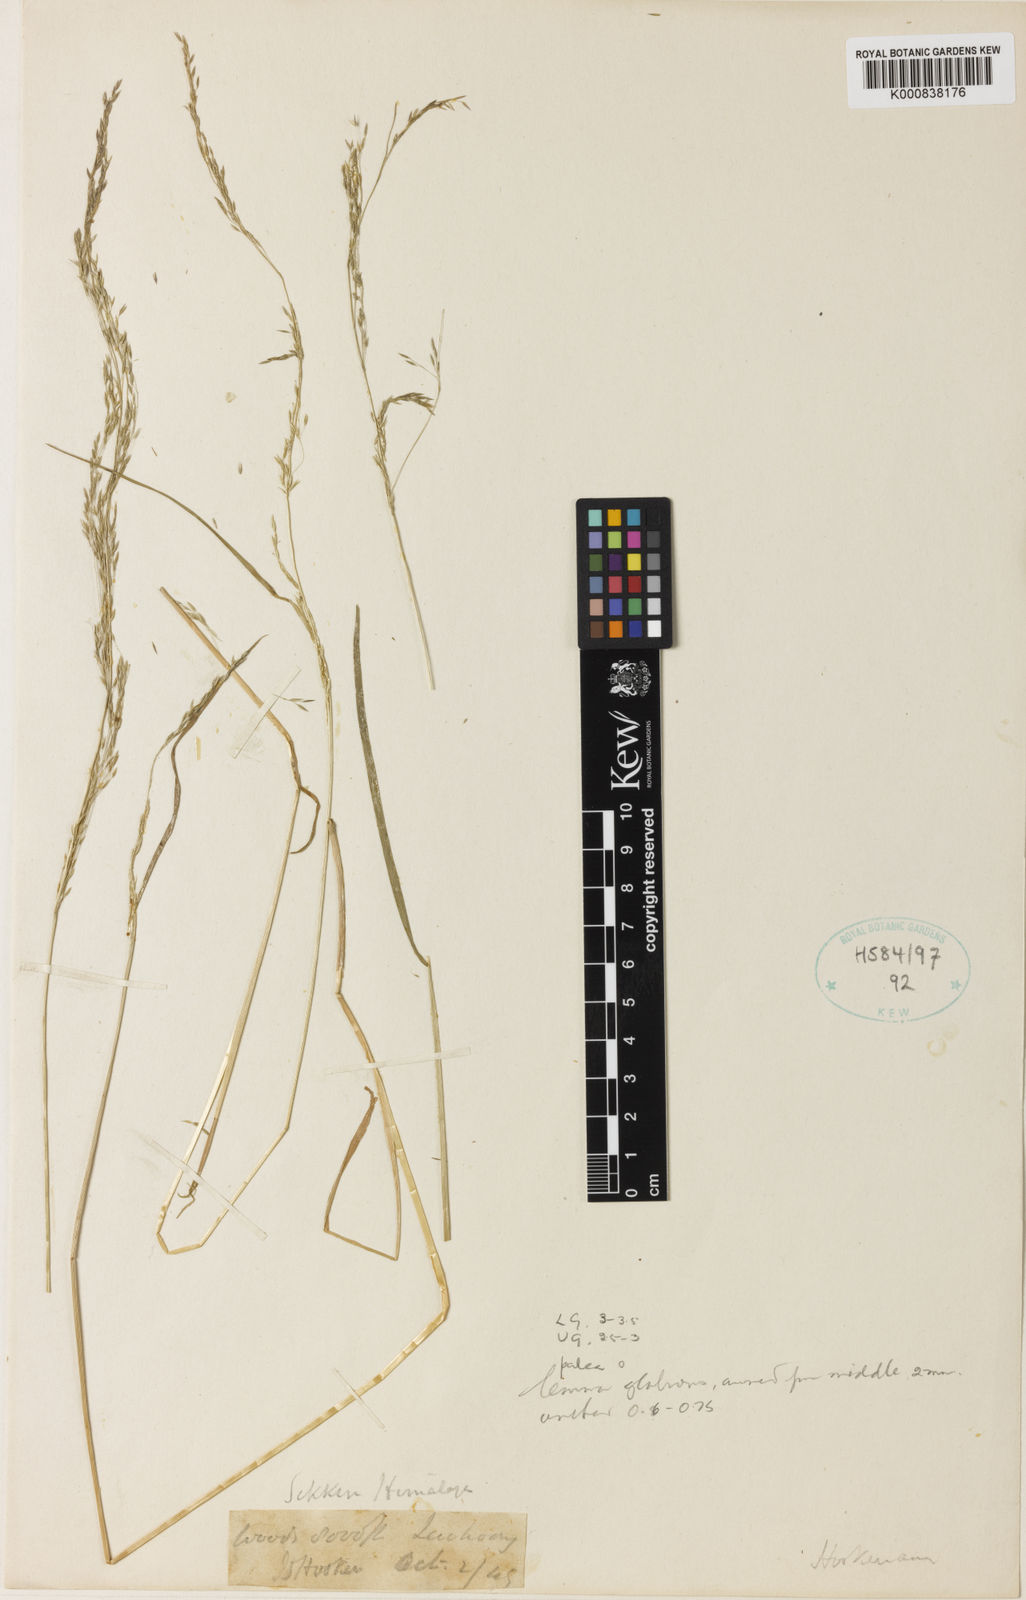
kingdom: Plantae
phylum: Tracheophyta
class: Liliopsida
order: Poales
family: Poaceae
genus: Agrostis
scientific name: Agrostis hookeriana
